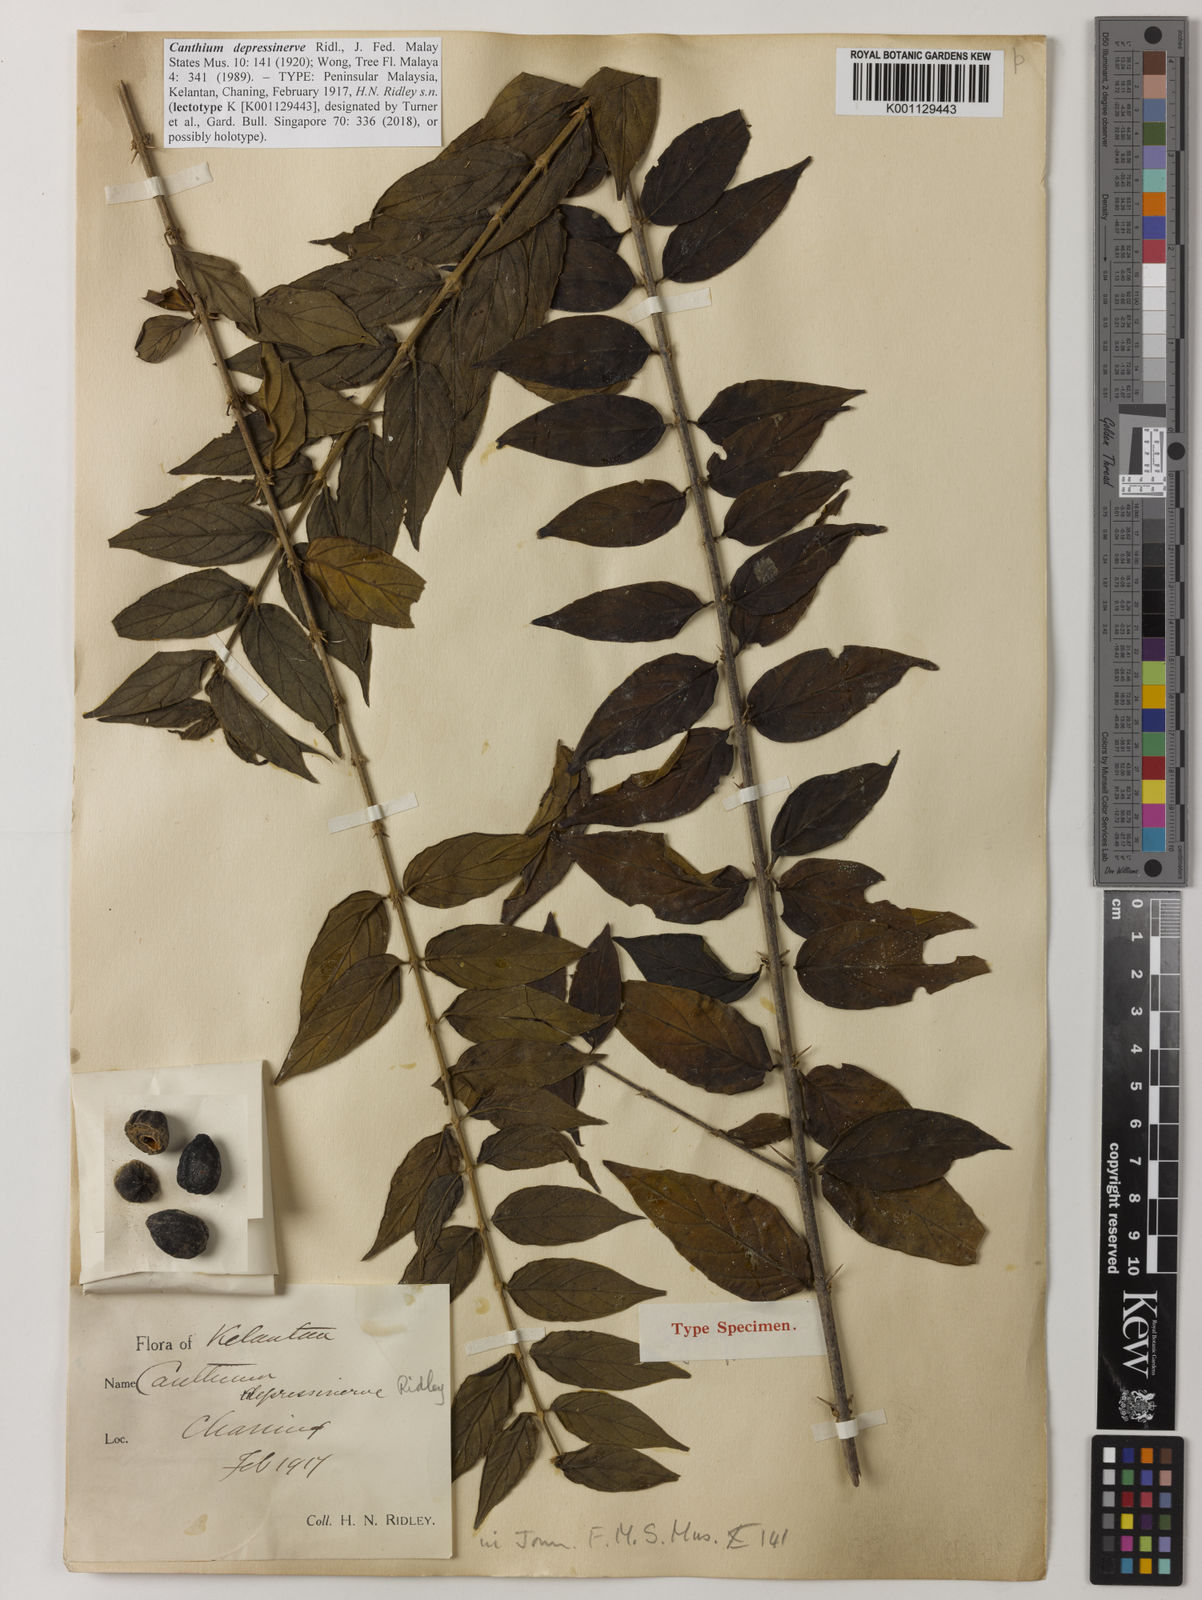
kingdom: Plantae
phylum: Tracheophyta
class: Magnoliopsida
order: Gentianales
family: Rubiaceae
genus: Canthium
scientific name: Canthium depressinerve
